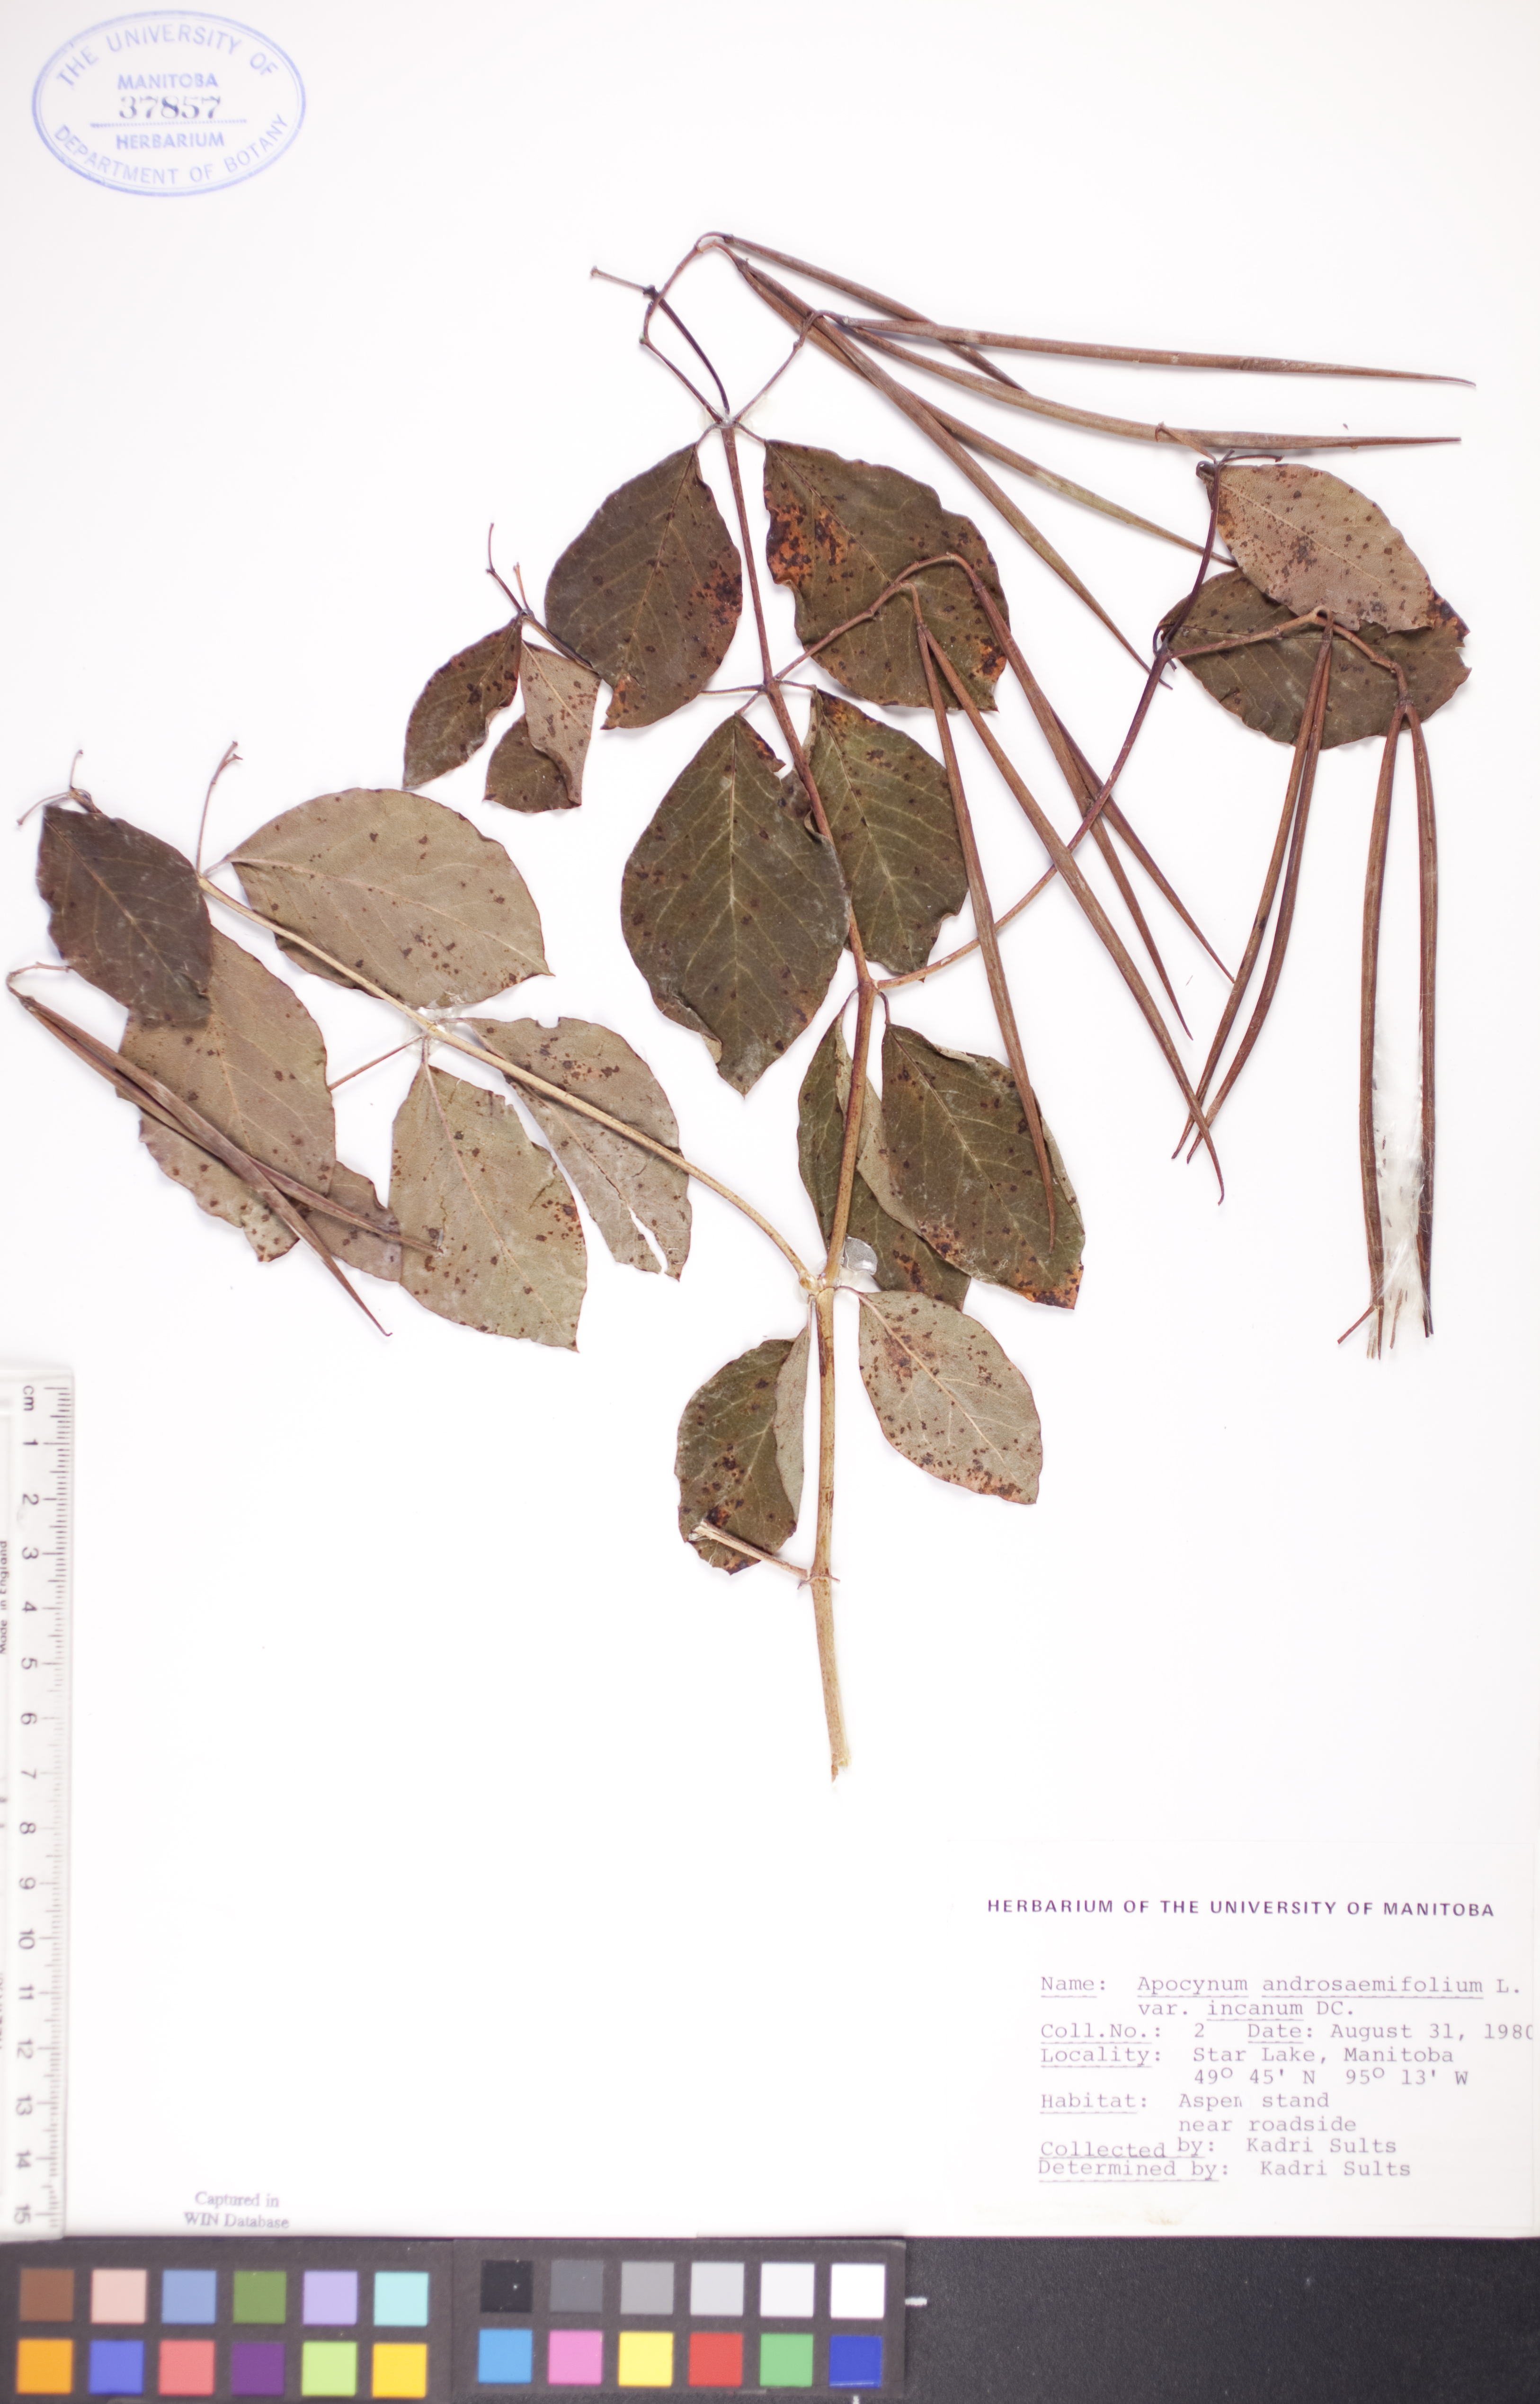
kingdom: Plantae
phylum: Tracheophyta
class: Magnoliopsida
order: Gentianales
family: Apocynaceae
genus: Apocynum
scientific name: Apocynum androsaemifolium
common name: Spreading dogbane
